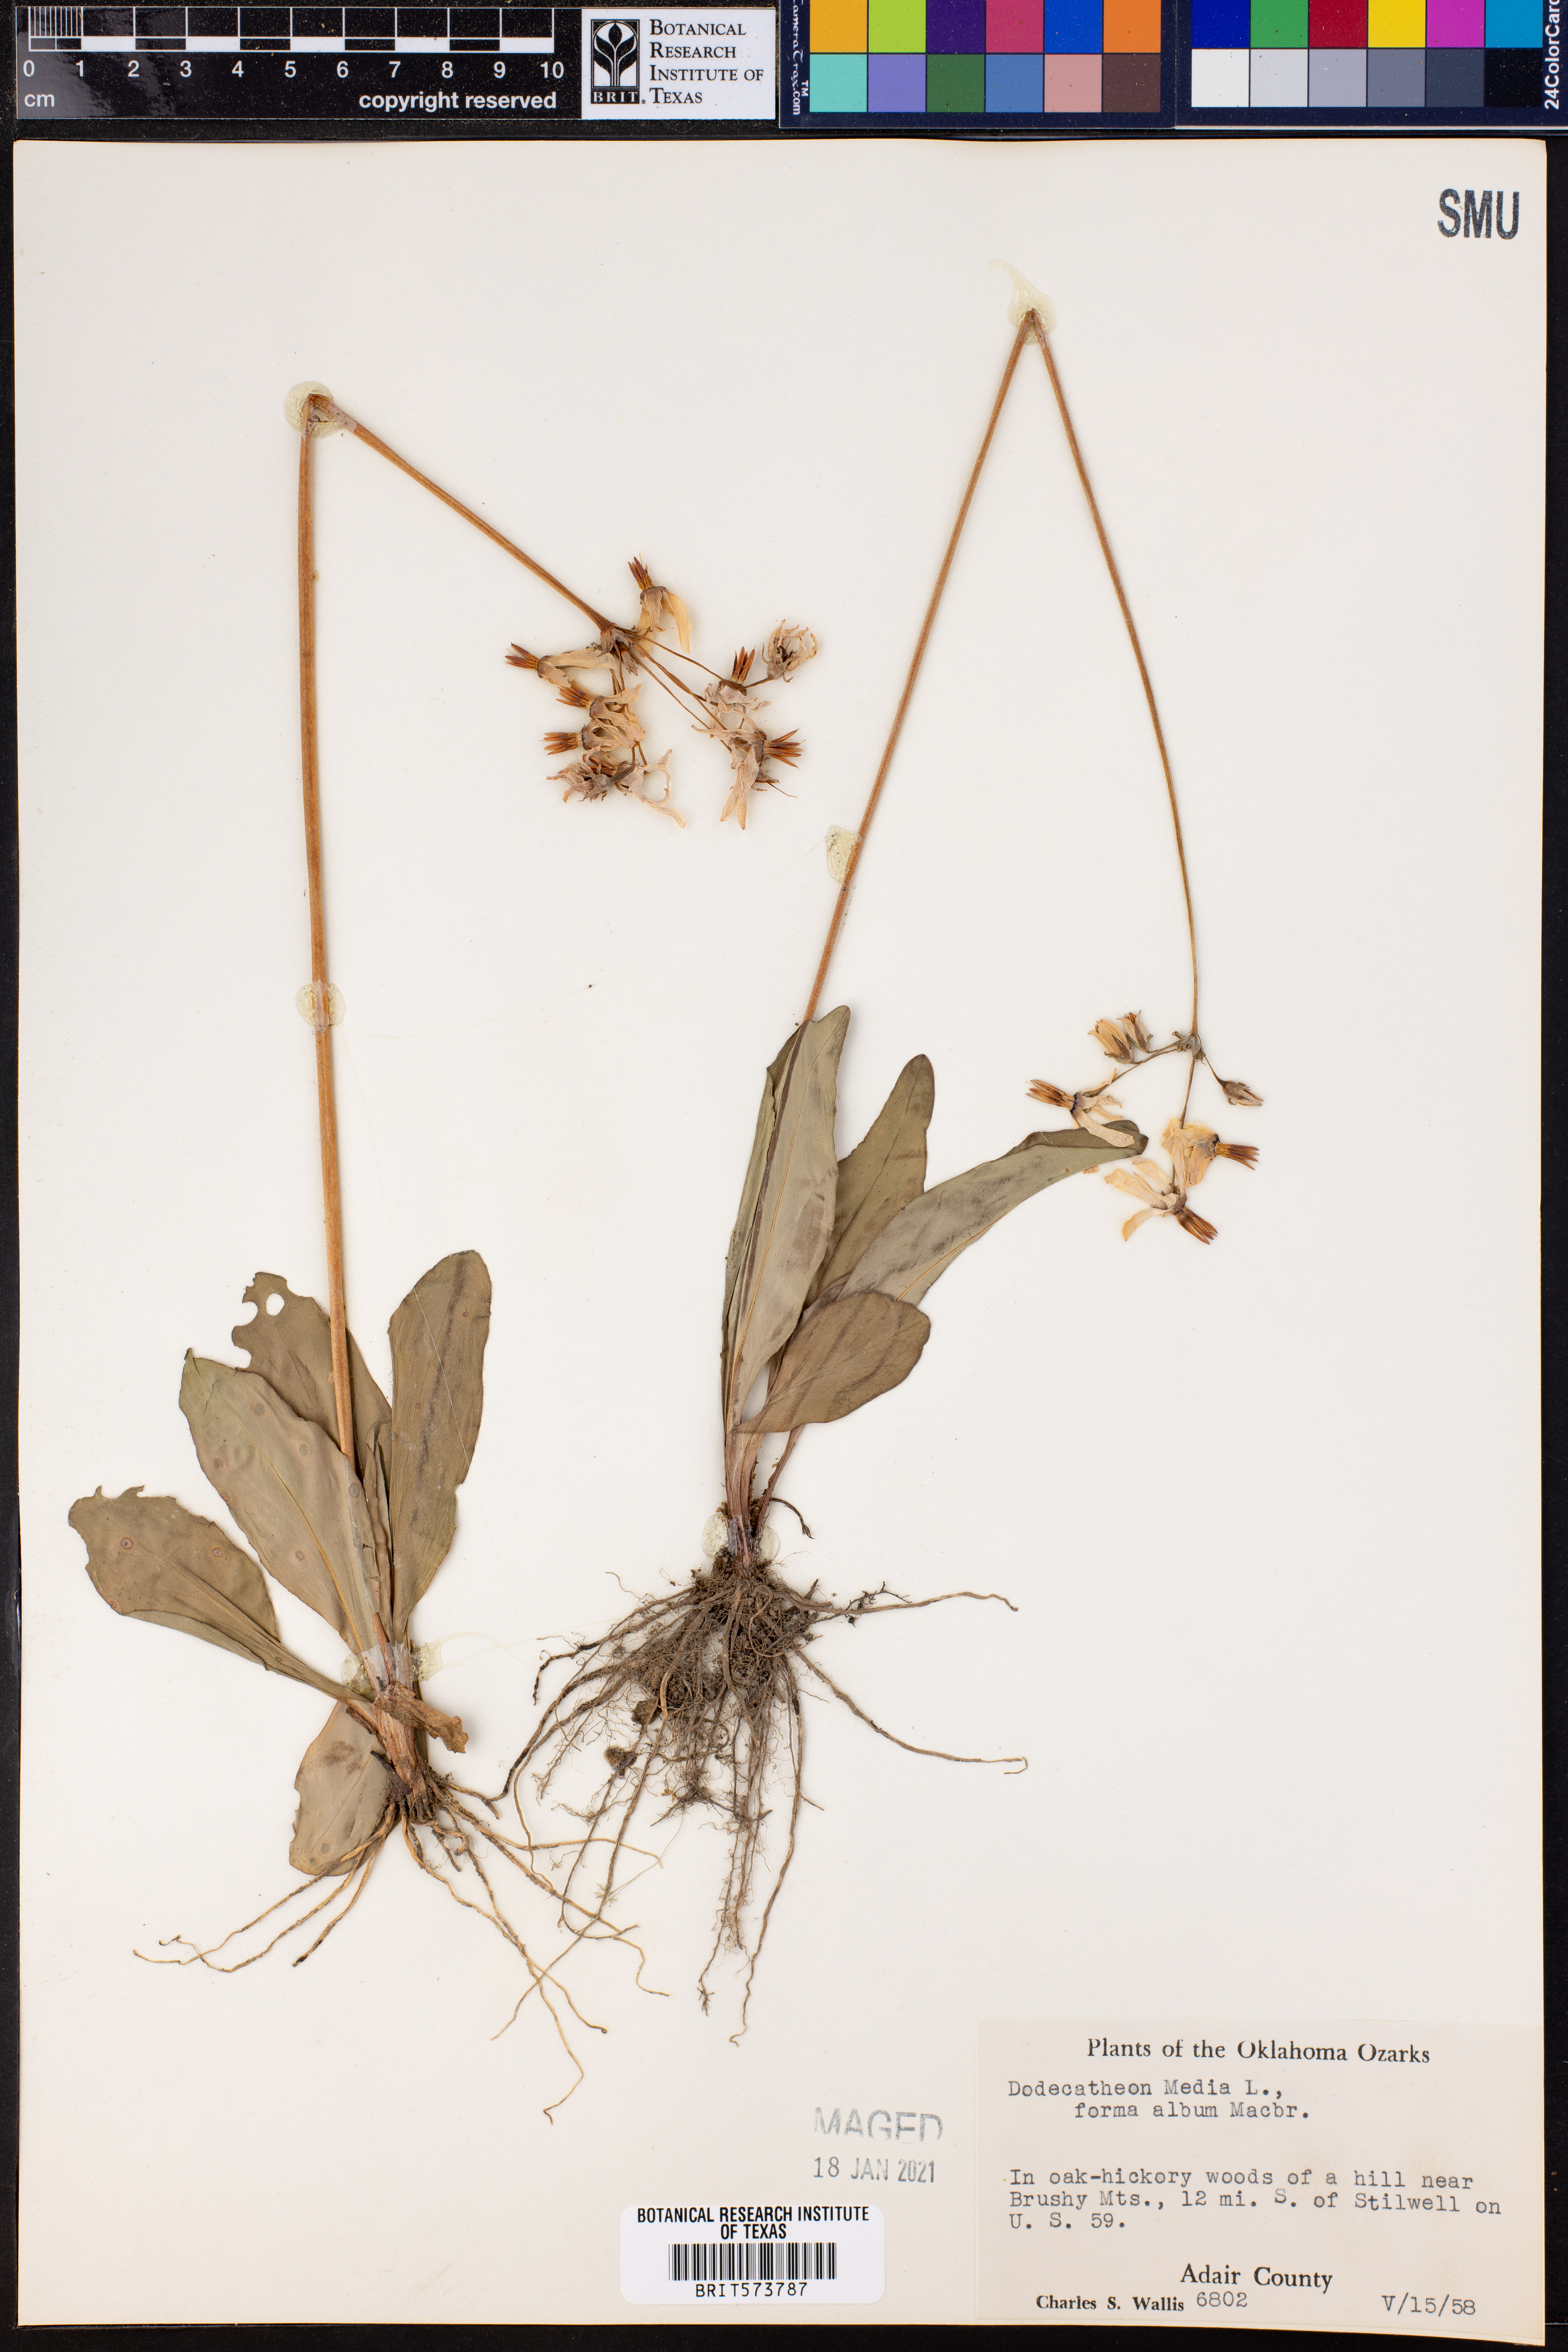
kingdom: Plantae
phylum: Tracheophyta
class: Magnoliopsida
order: Ericales
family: Primulaceae
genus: Dodecatheon
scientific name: Dodecatheon meadia
